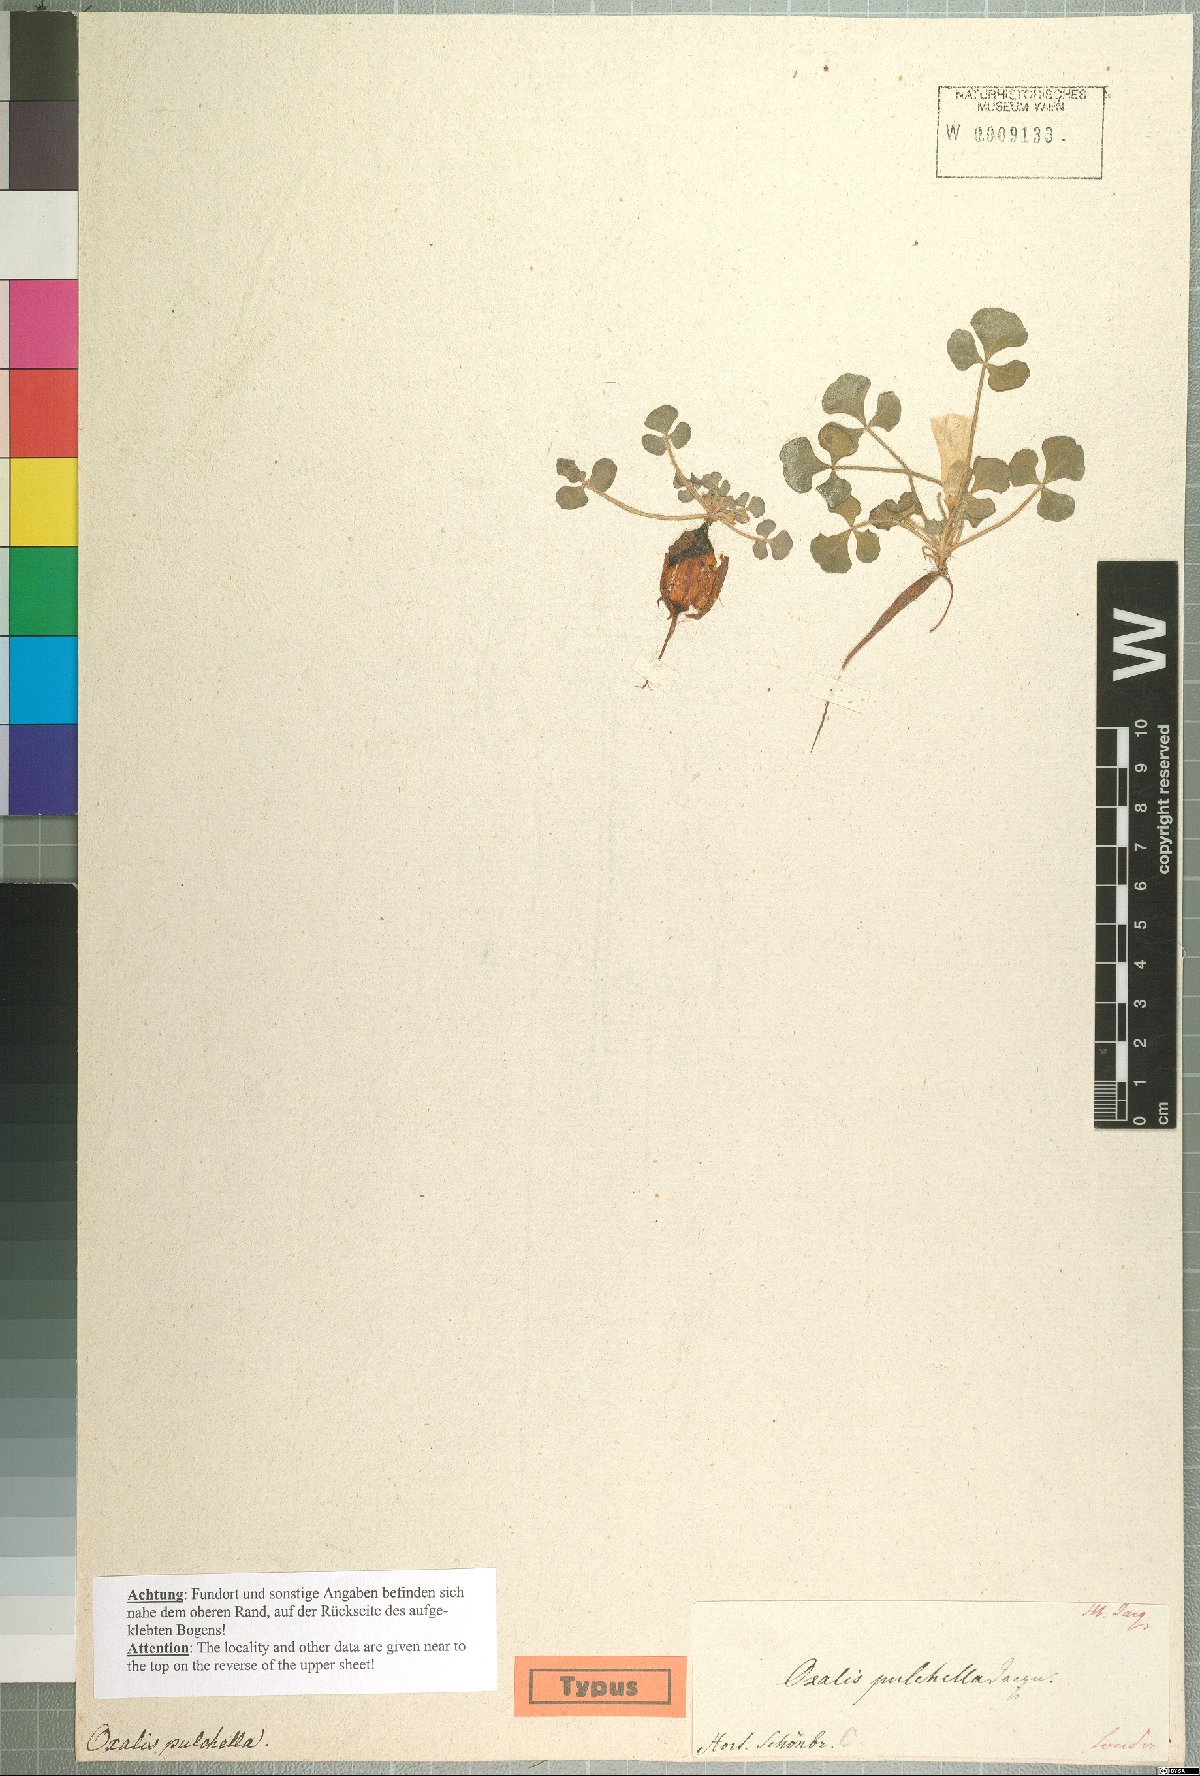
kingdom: Plantae
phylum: Tracheophyta
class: Magnoliopsida
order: Oxalidales
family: Oxalidaceae
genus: Oxalis
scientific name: Oxalis pulchella
